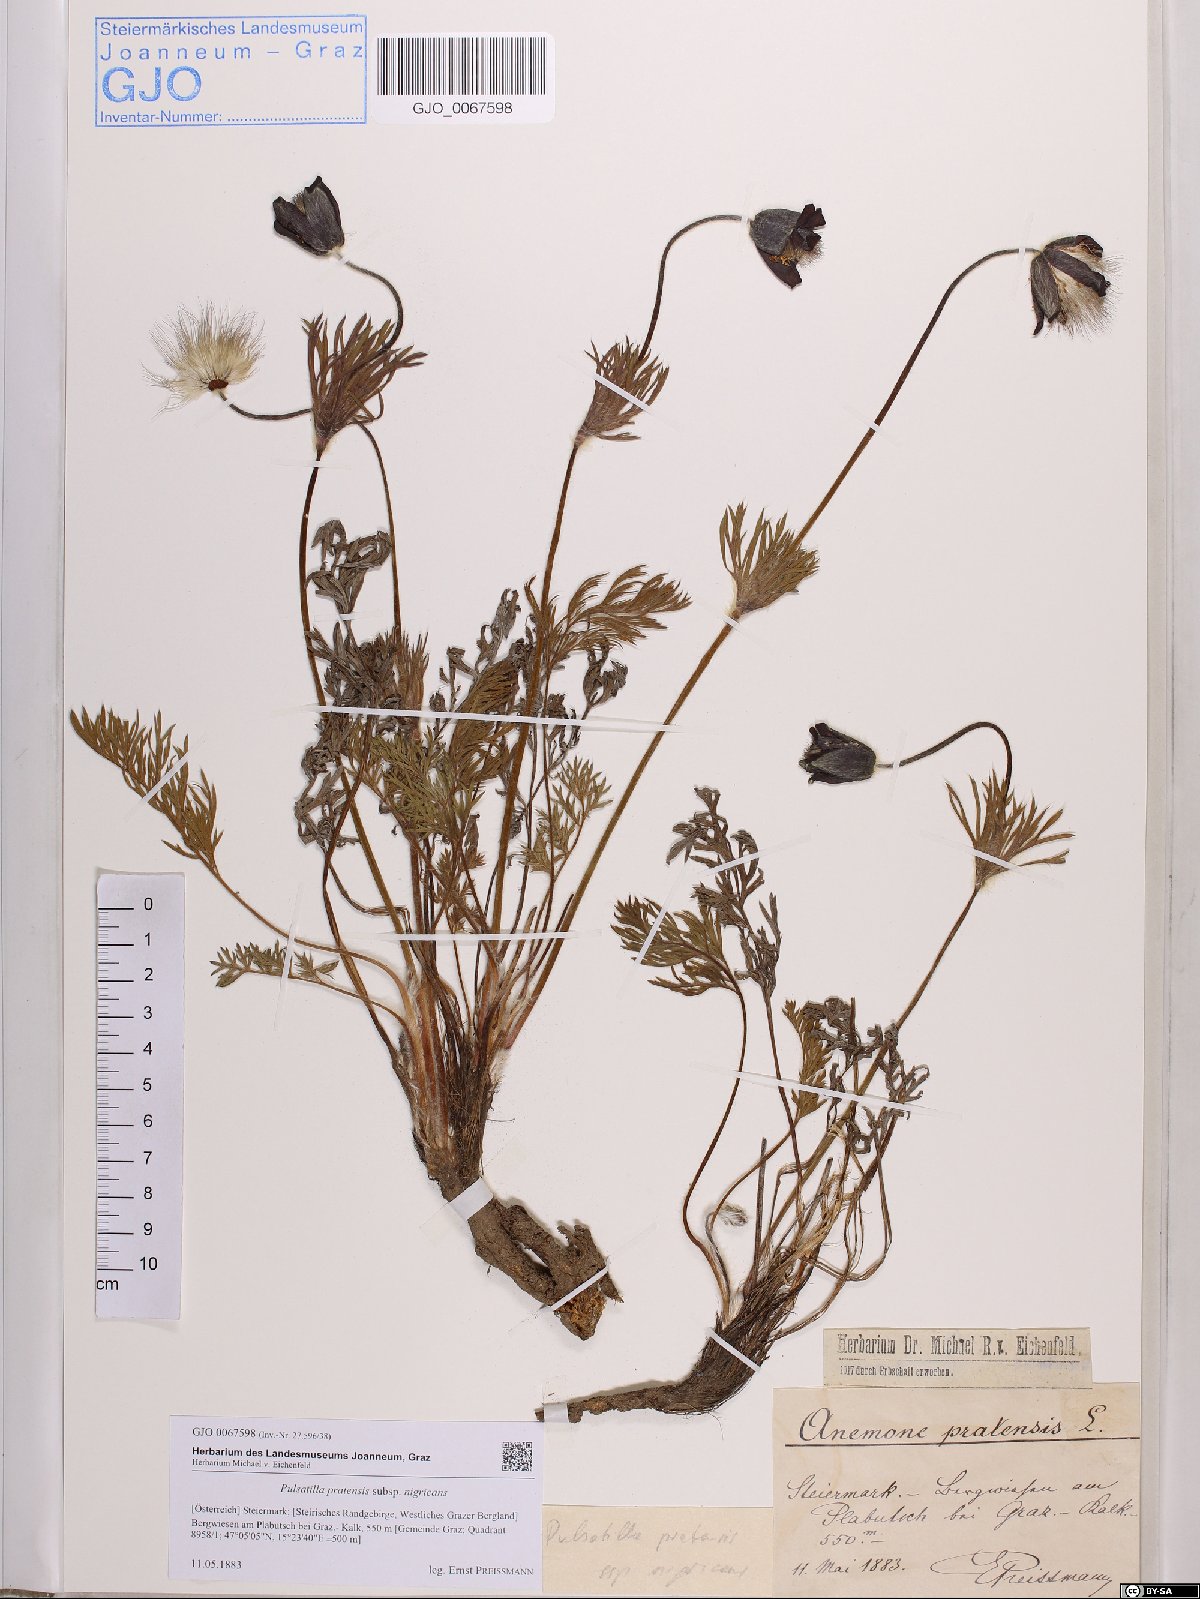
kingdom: Plantae
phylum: Tracheophyta
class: Magnoliopsida
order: Ranunculales
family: Ranunculaceae
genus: Pulsatilla
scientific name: Pulsatilla pratensis
